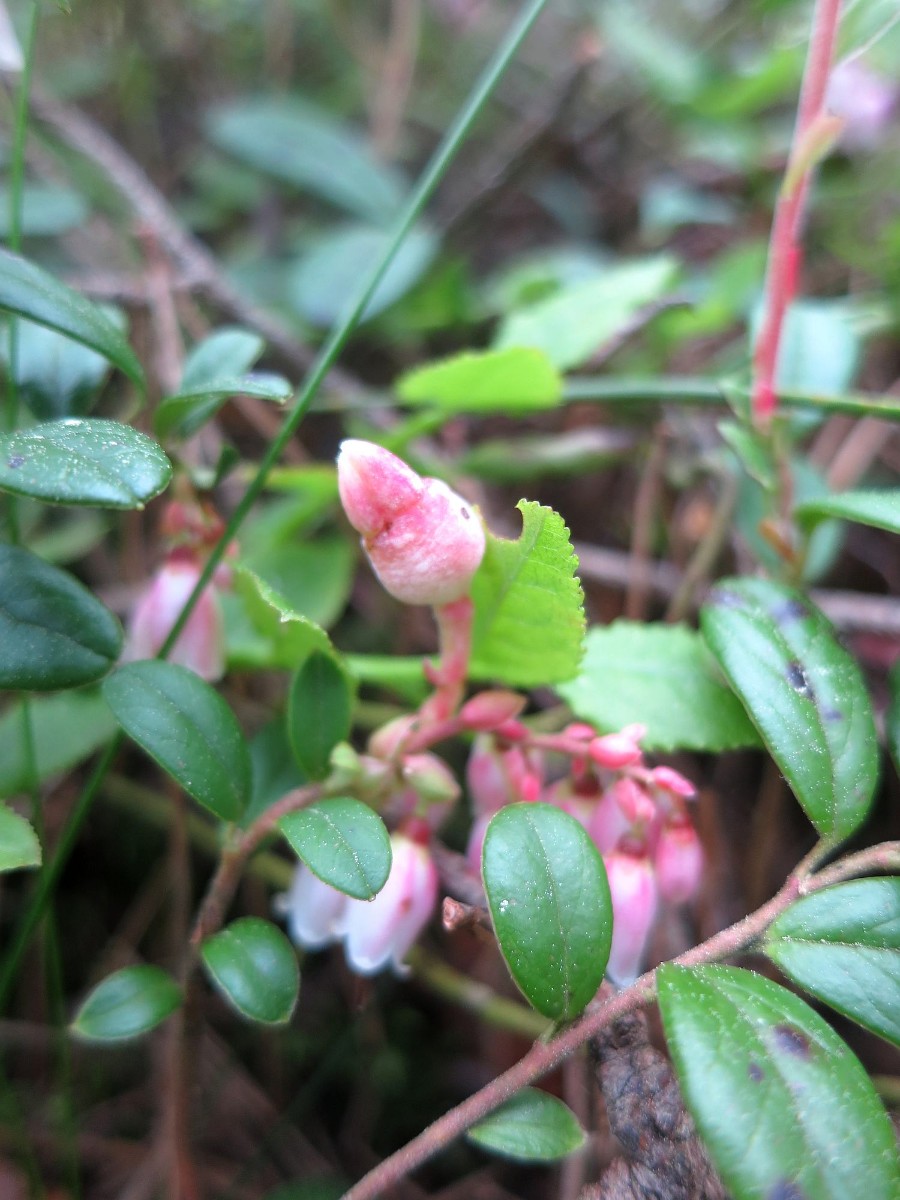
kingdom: Fungi
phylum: Basidiomycota
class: Exobasidiomycetes
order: Exobasidiales
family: Exobasidiaceae
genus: Exobasidium
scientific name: Exobasidium vaccinii
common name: tyttebærblad-bøllesvamp
